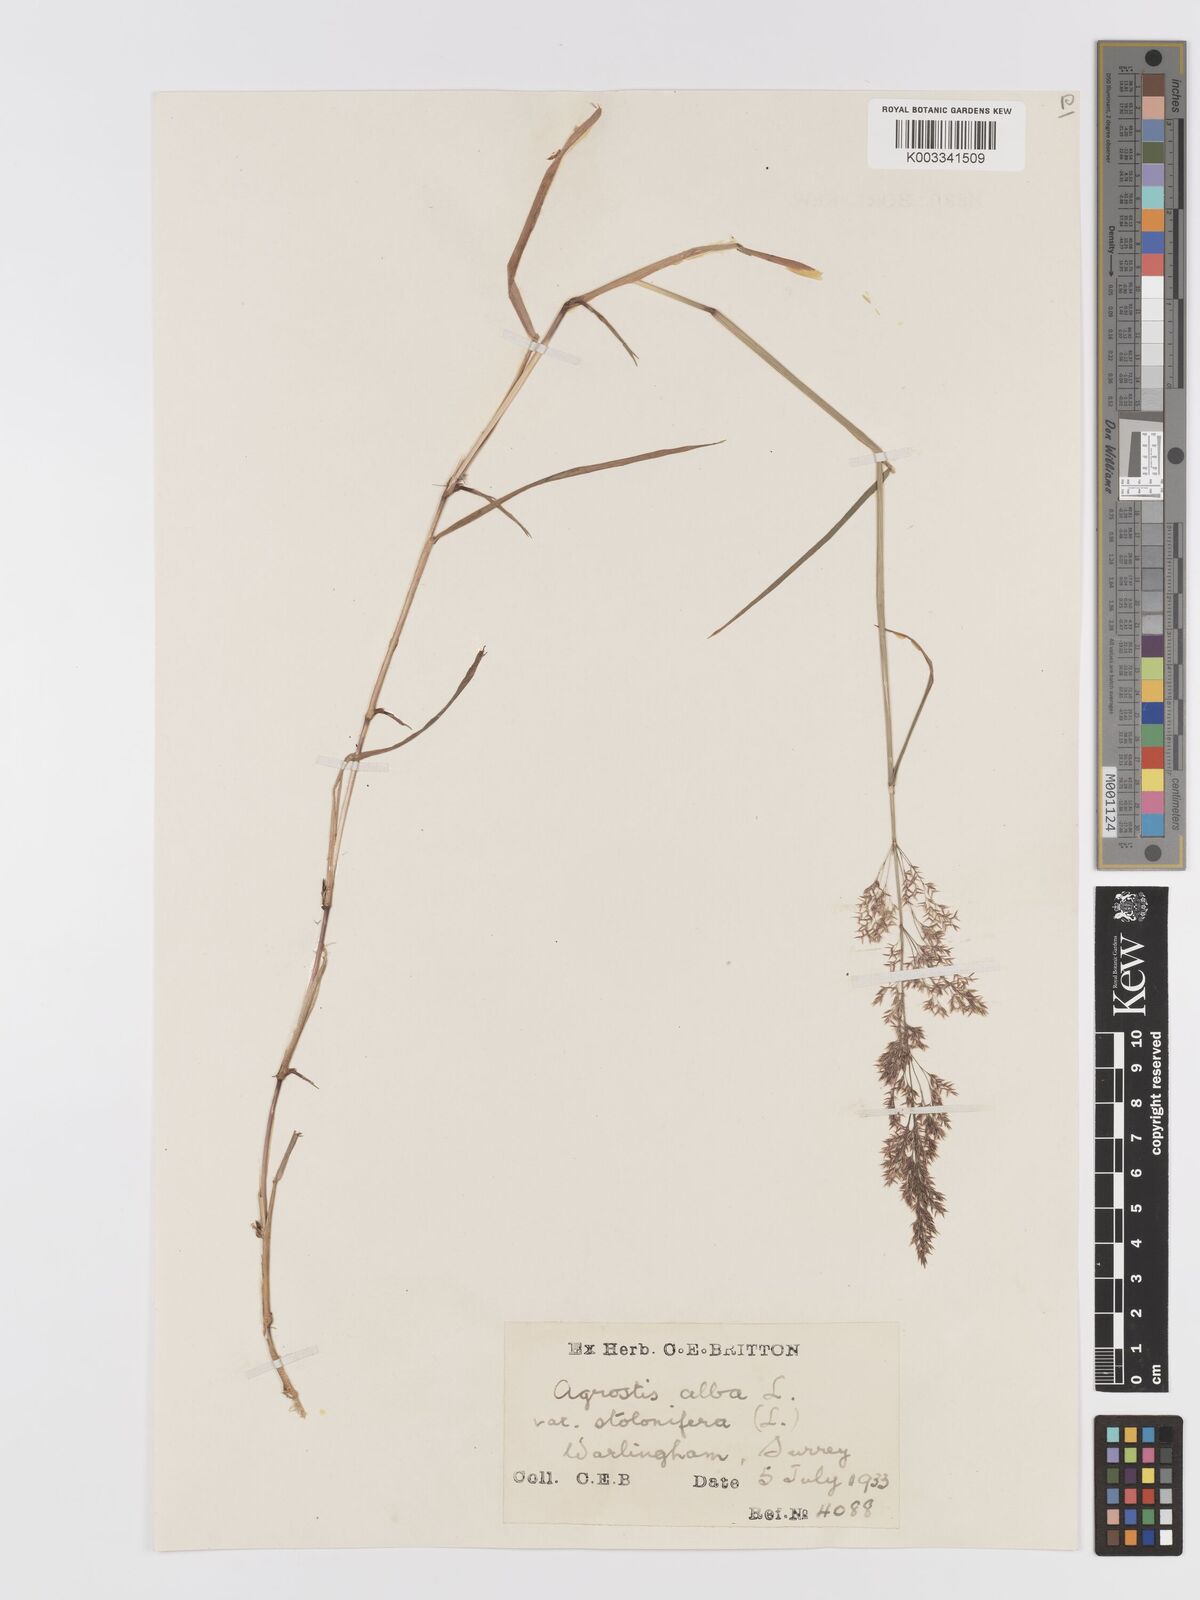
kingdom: Plantae
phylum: Tracheophyta
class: Liliopsida
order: Poales
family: Poaceae
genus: Agrostis
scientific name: Agrostis stolonifera
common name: Creeping bentgrass
